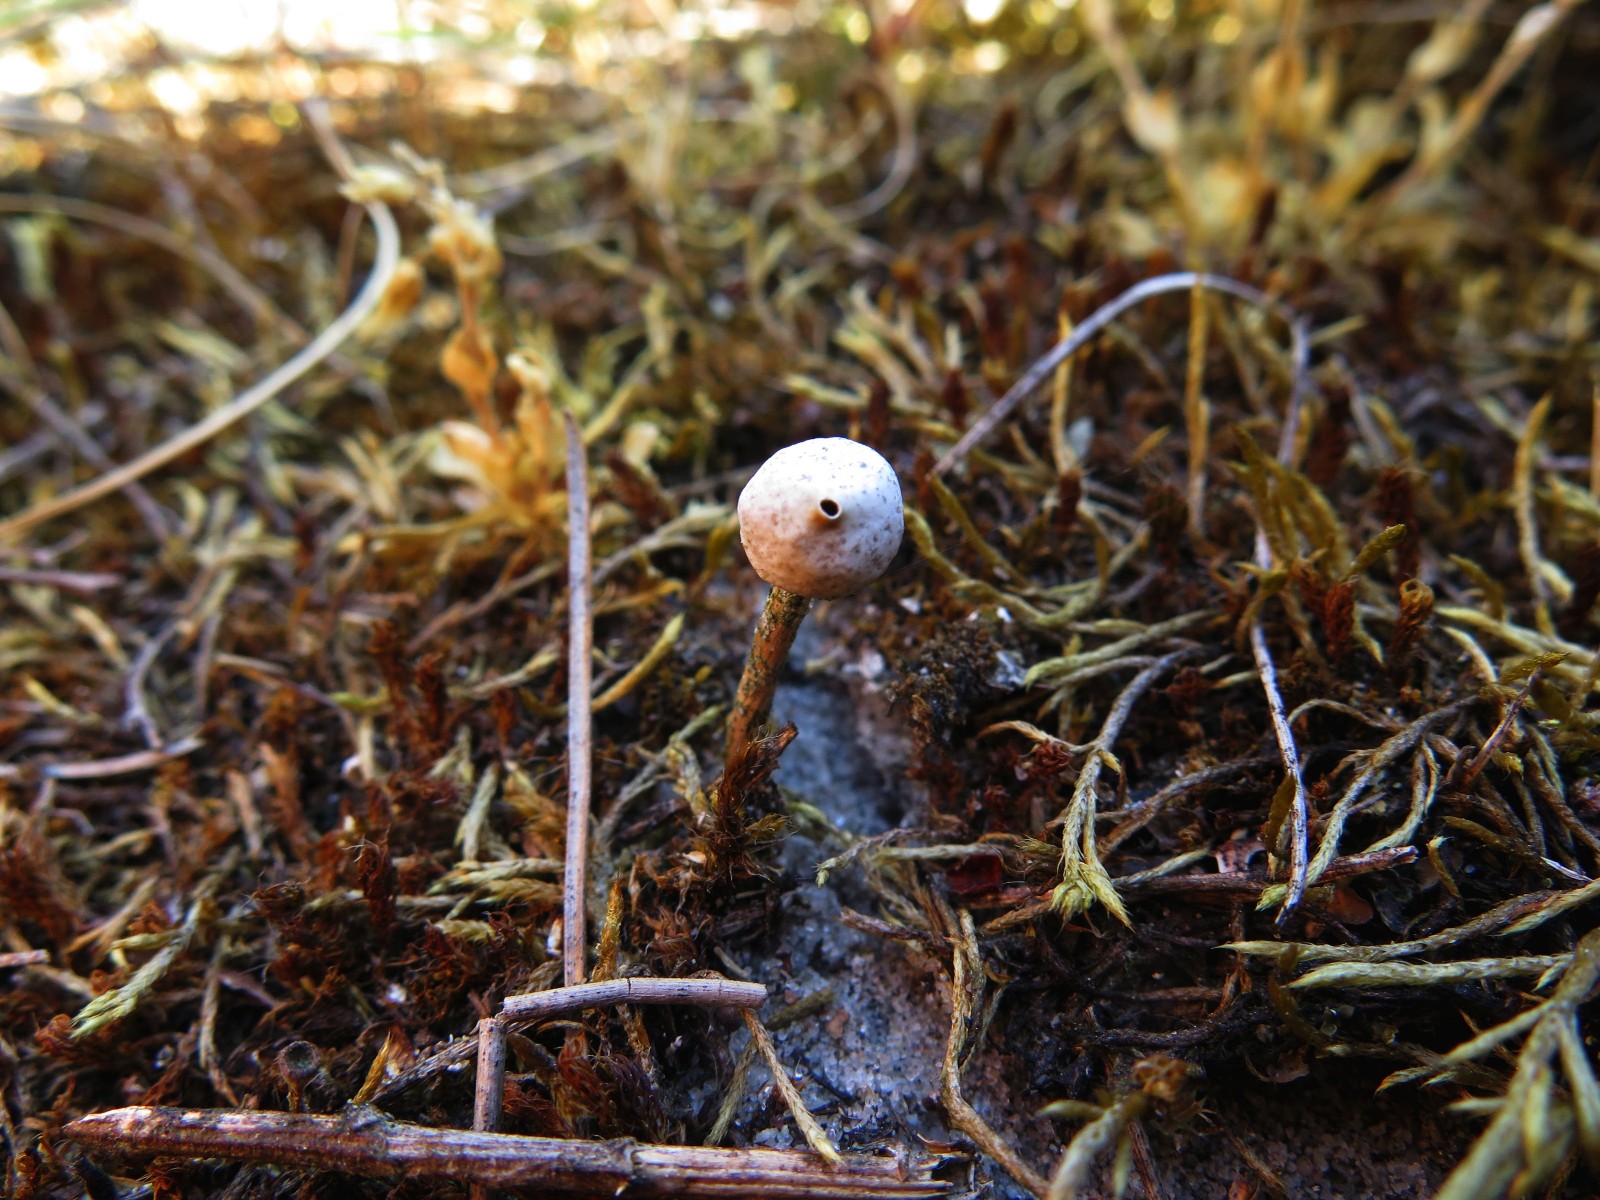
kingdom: Fungi
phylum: Basidiomycota
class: Agaricomycetes
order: Agaricales
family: Agaricaceae
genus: Tulostoma
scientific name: Tulostoma brumale
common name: vinter-stilkbovist
